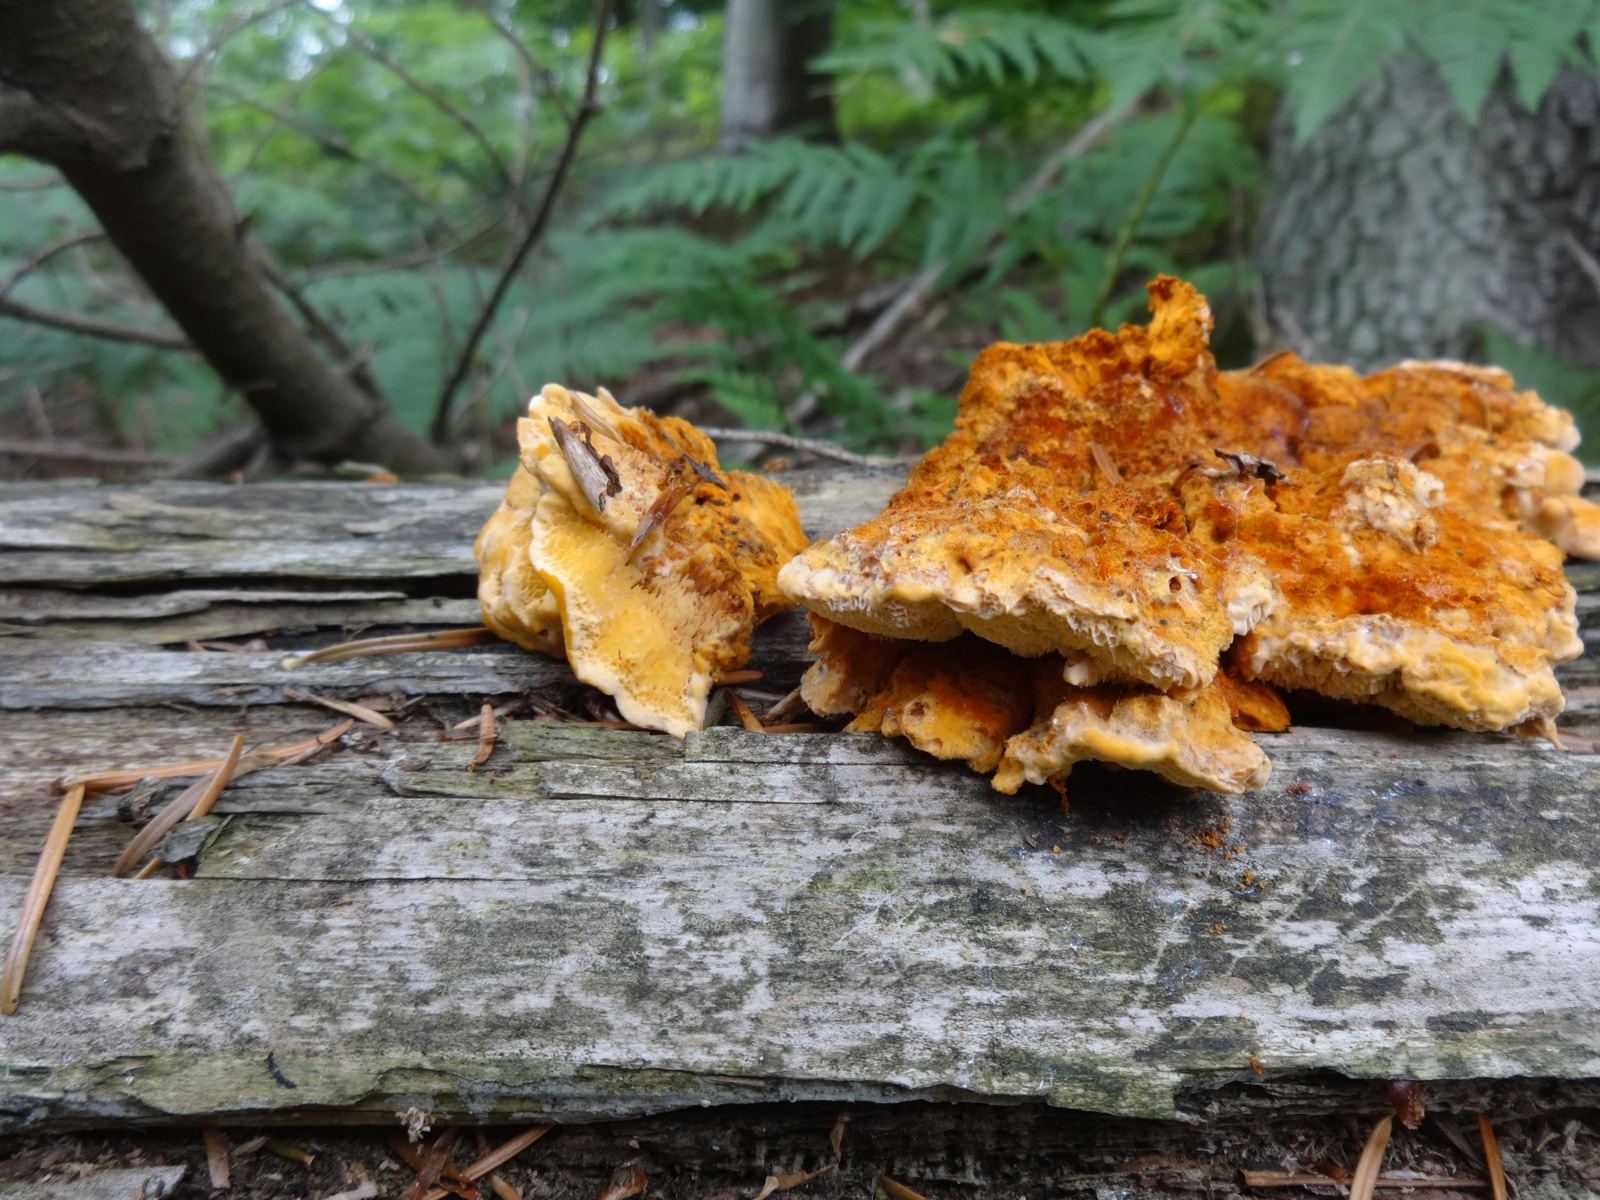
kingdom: Fungi
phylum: Basidiomycota
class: Agaricomycetes
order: Polyporales
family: Pycnoporellaceae
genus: Pycnoporellus
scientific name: Pycnoporellus fulgens
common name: flammeporesvamp
